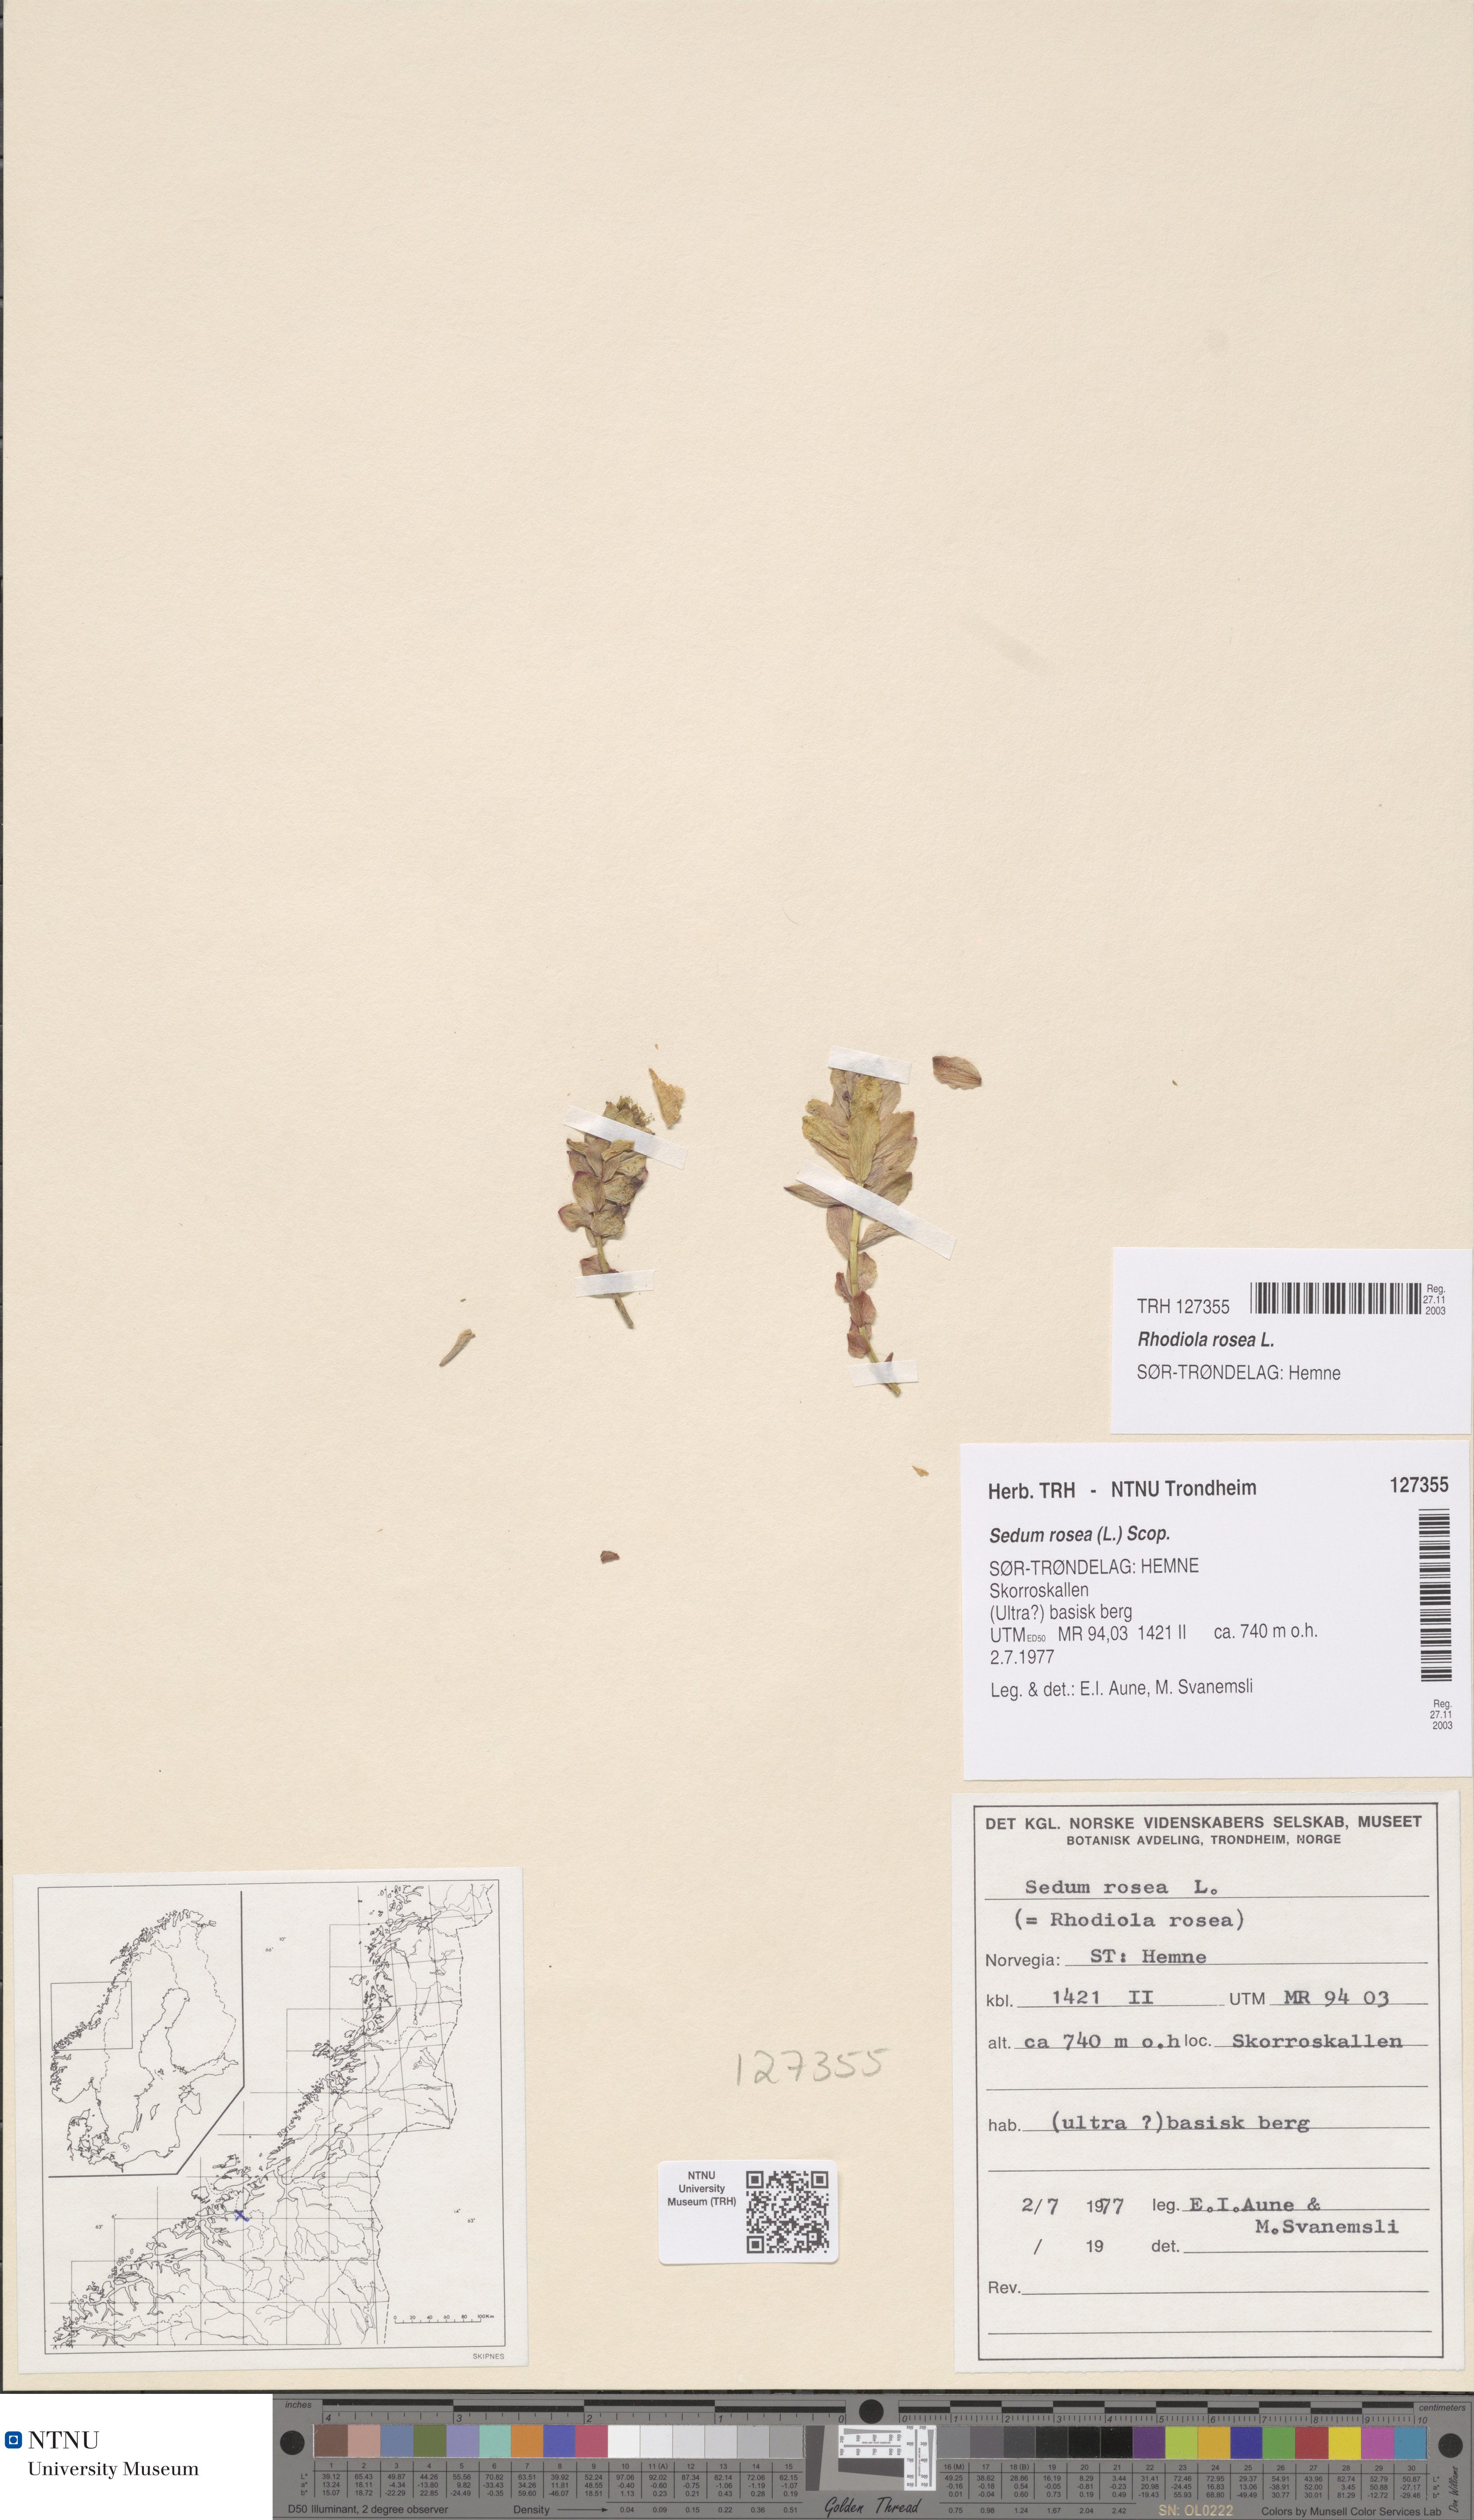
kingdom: Plantae
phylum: Tracheophyta
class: Magnoliopsida
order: Saxifragales
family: Crassulaceae
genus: Rhodiola
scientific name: Rhodiola rosea
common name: Roseroot
